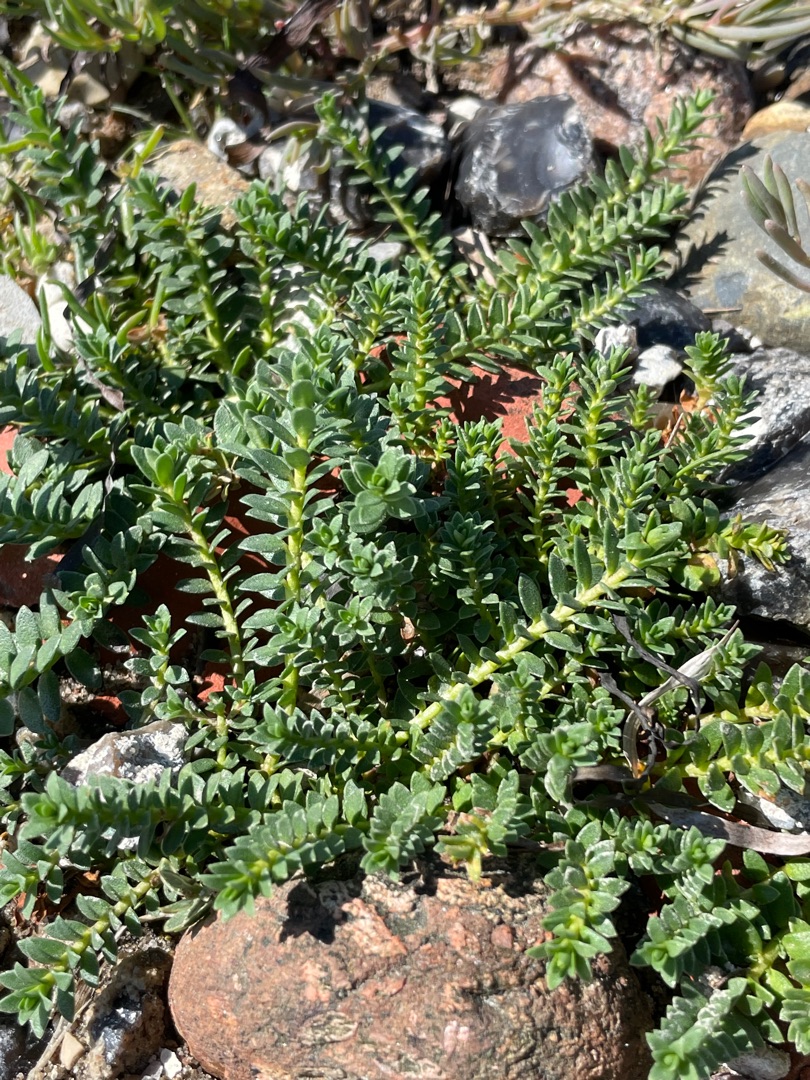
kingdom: Plantae
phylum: Tracheophyta
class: Magnoliopsida
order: Ericales
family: Primulaceae
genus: Lysimachia
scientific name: Lysimachia maritima
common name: Sandkryb
